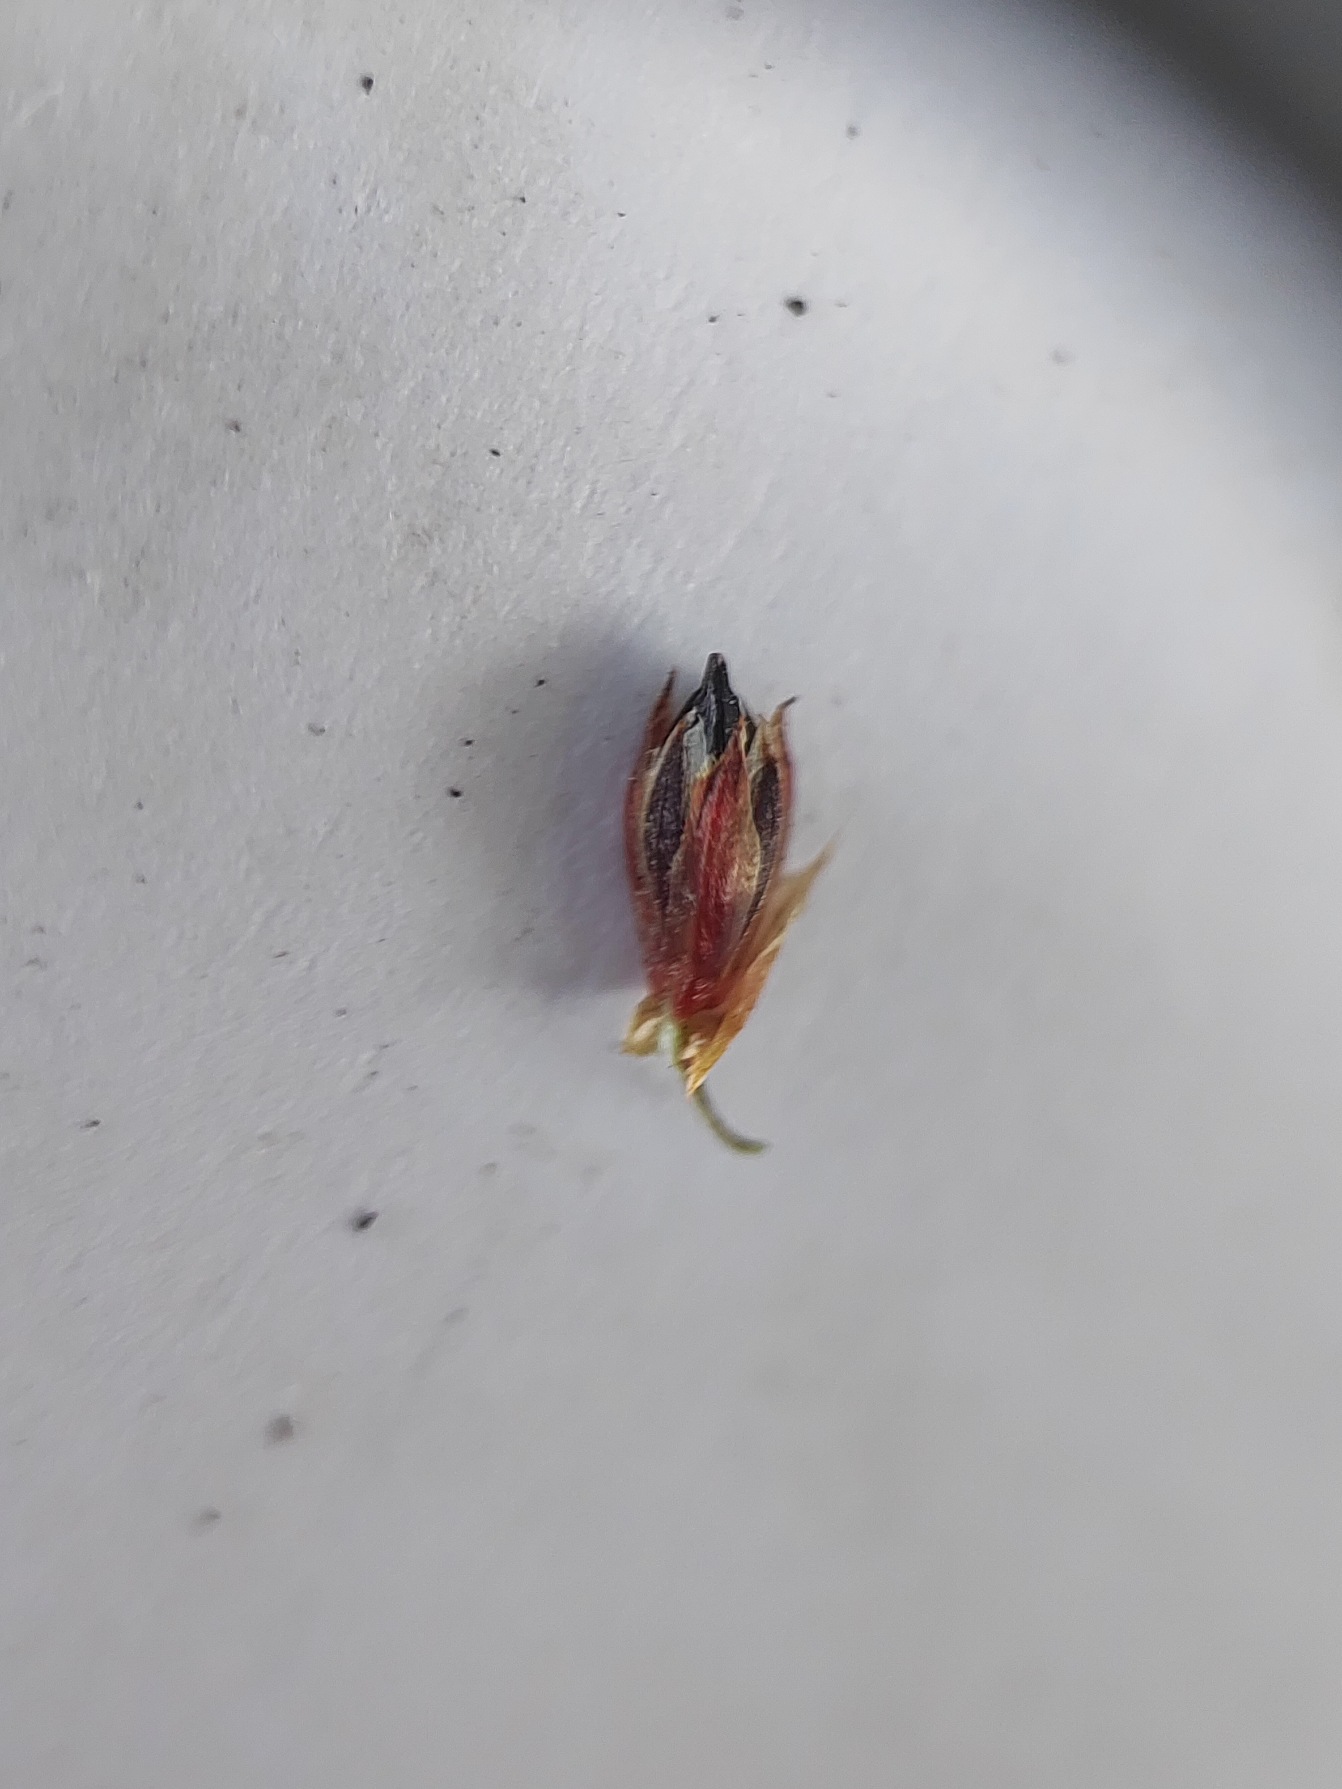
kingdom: Plantae
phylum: Tracheophyta
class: Liliopsida
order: Poales
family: Juncaceae
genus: Juncus
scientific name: Juncus articulatus
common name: Glanskapslet siv
